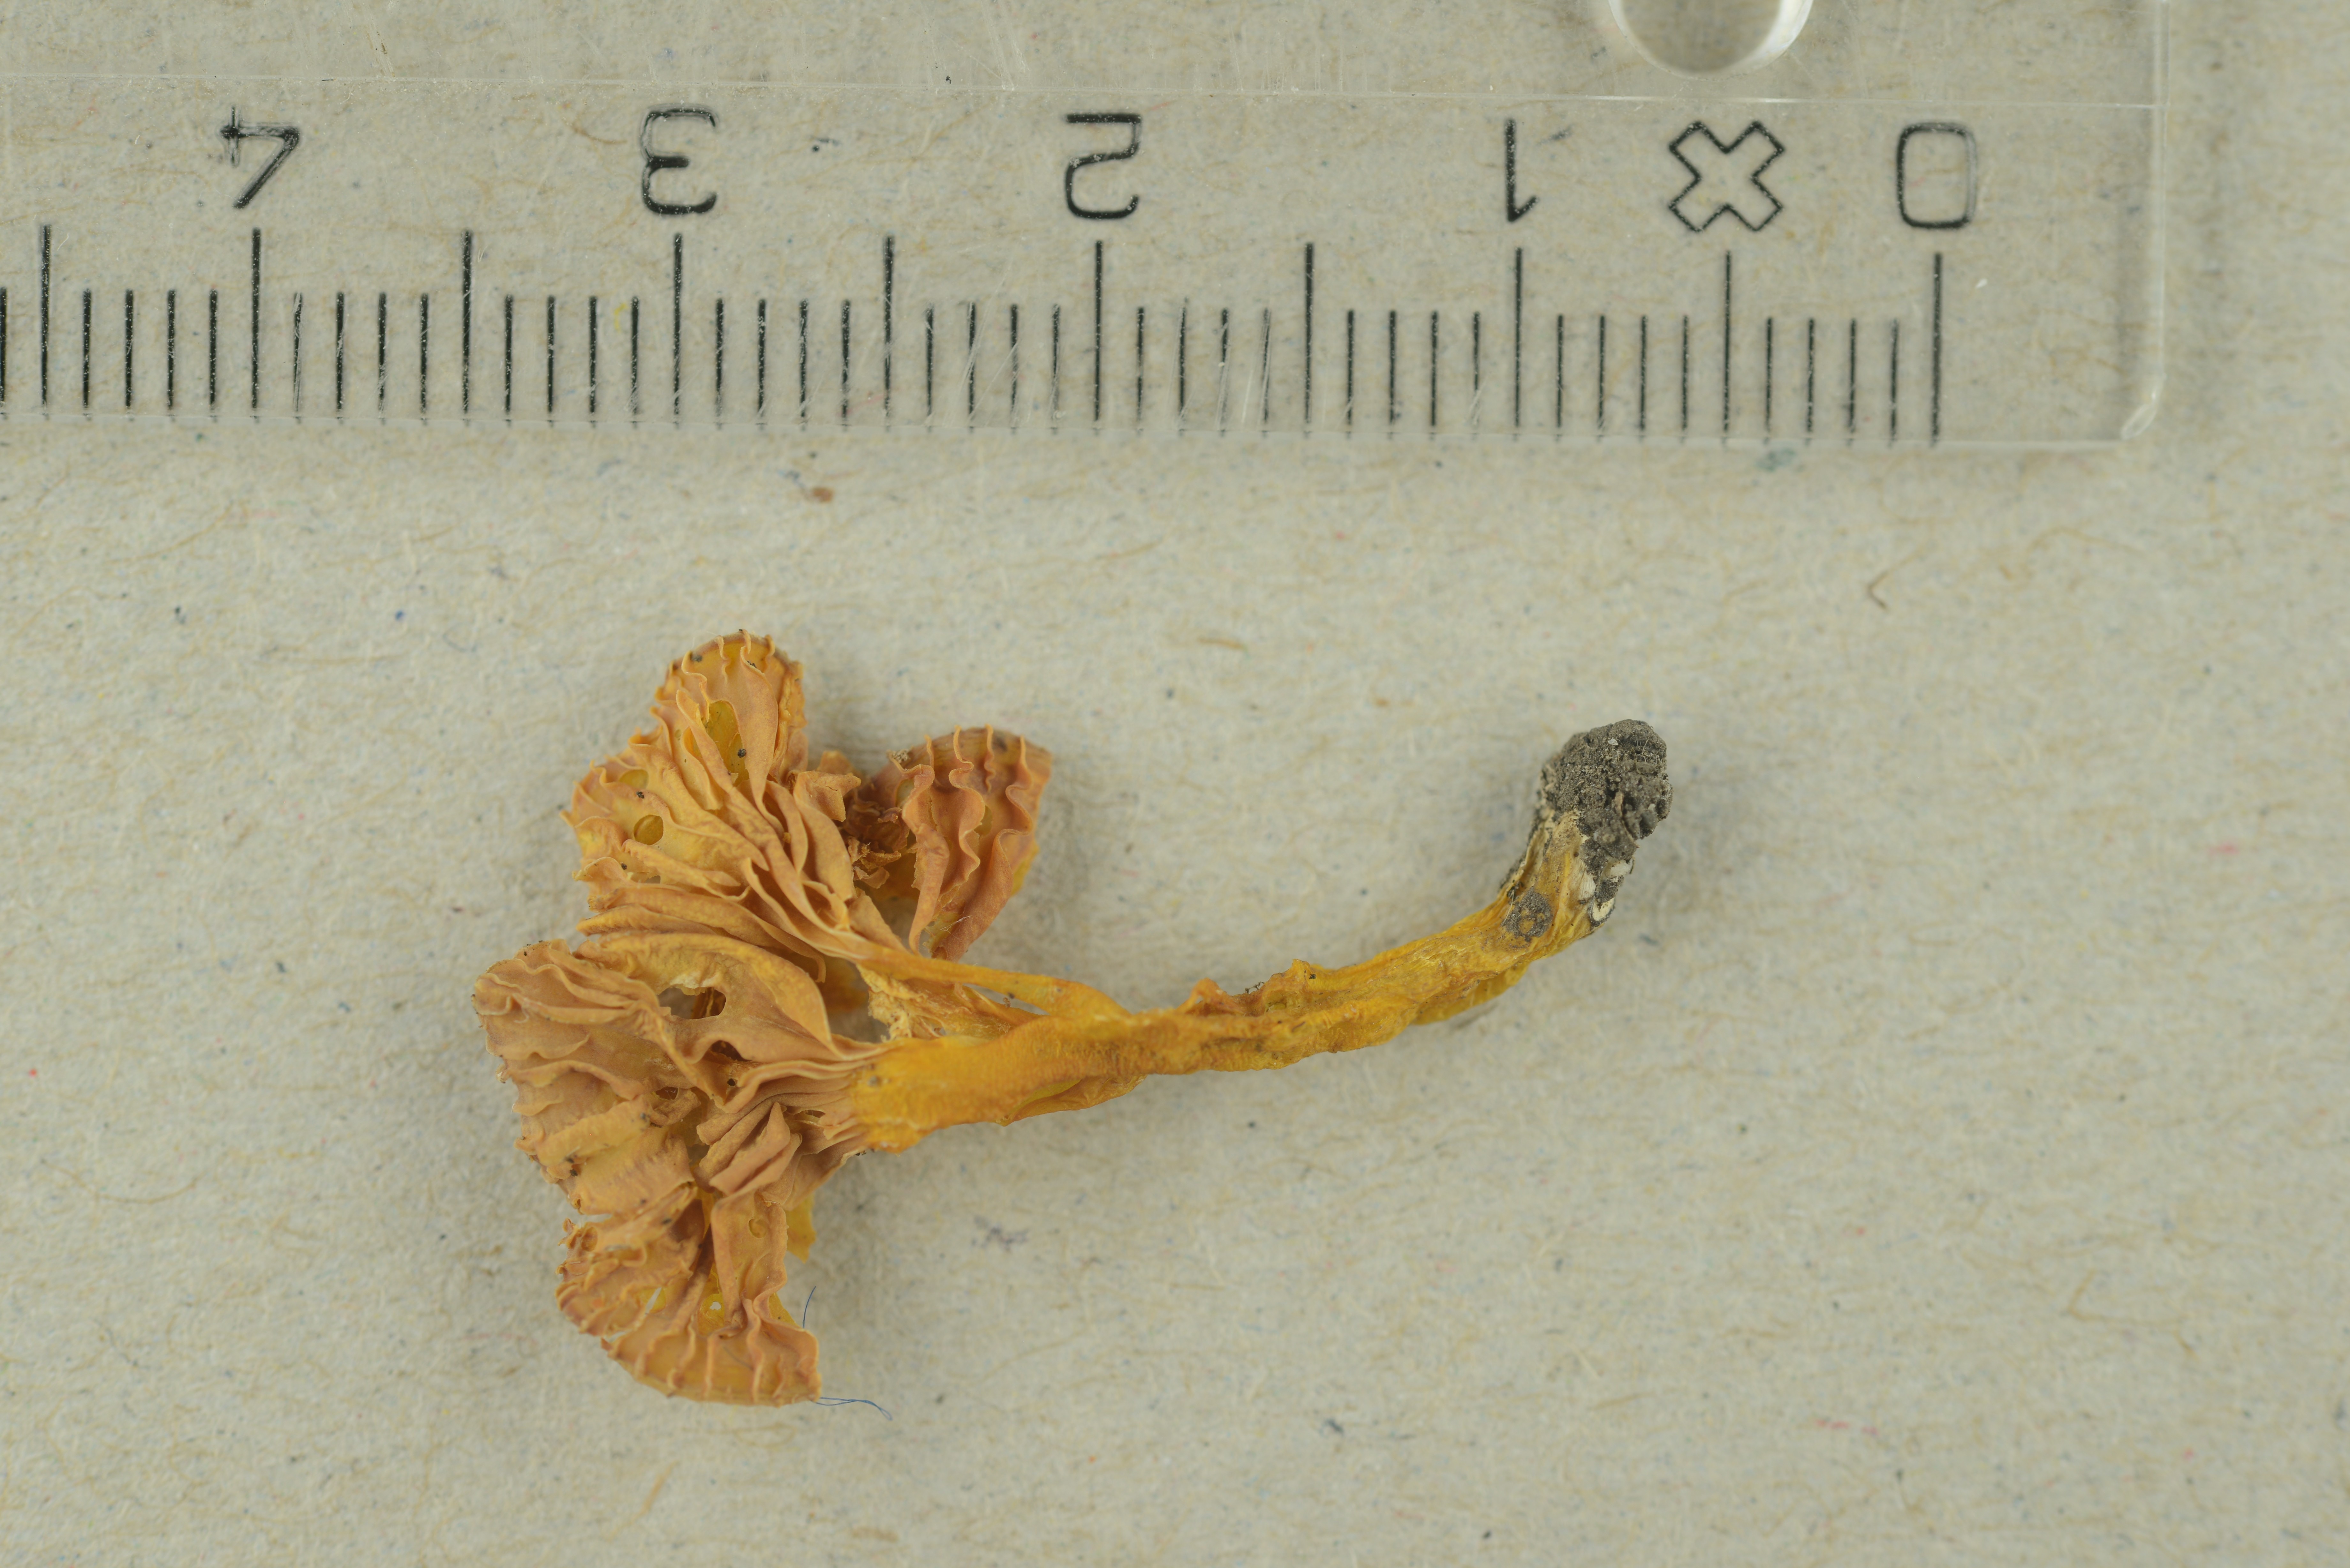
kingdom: Fungi
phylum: Basidiomycota
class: Agaricomycetes
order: Agaricales
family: Hygrophoraceae
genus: Hygrocybe
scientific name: Hygrocybe ceracea
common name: Butter waxcap
